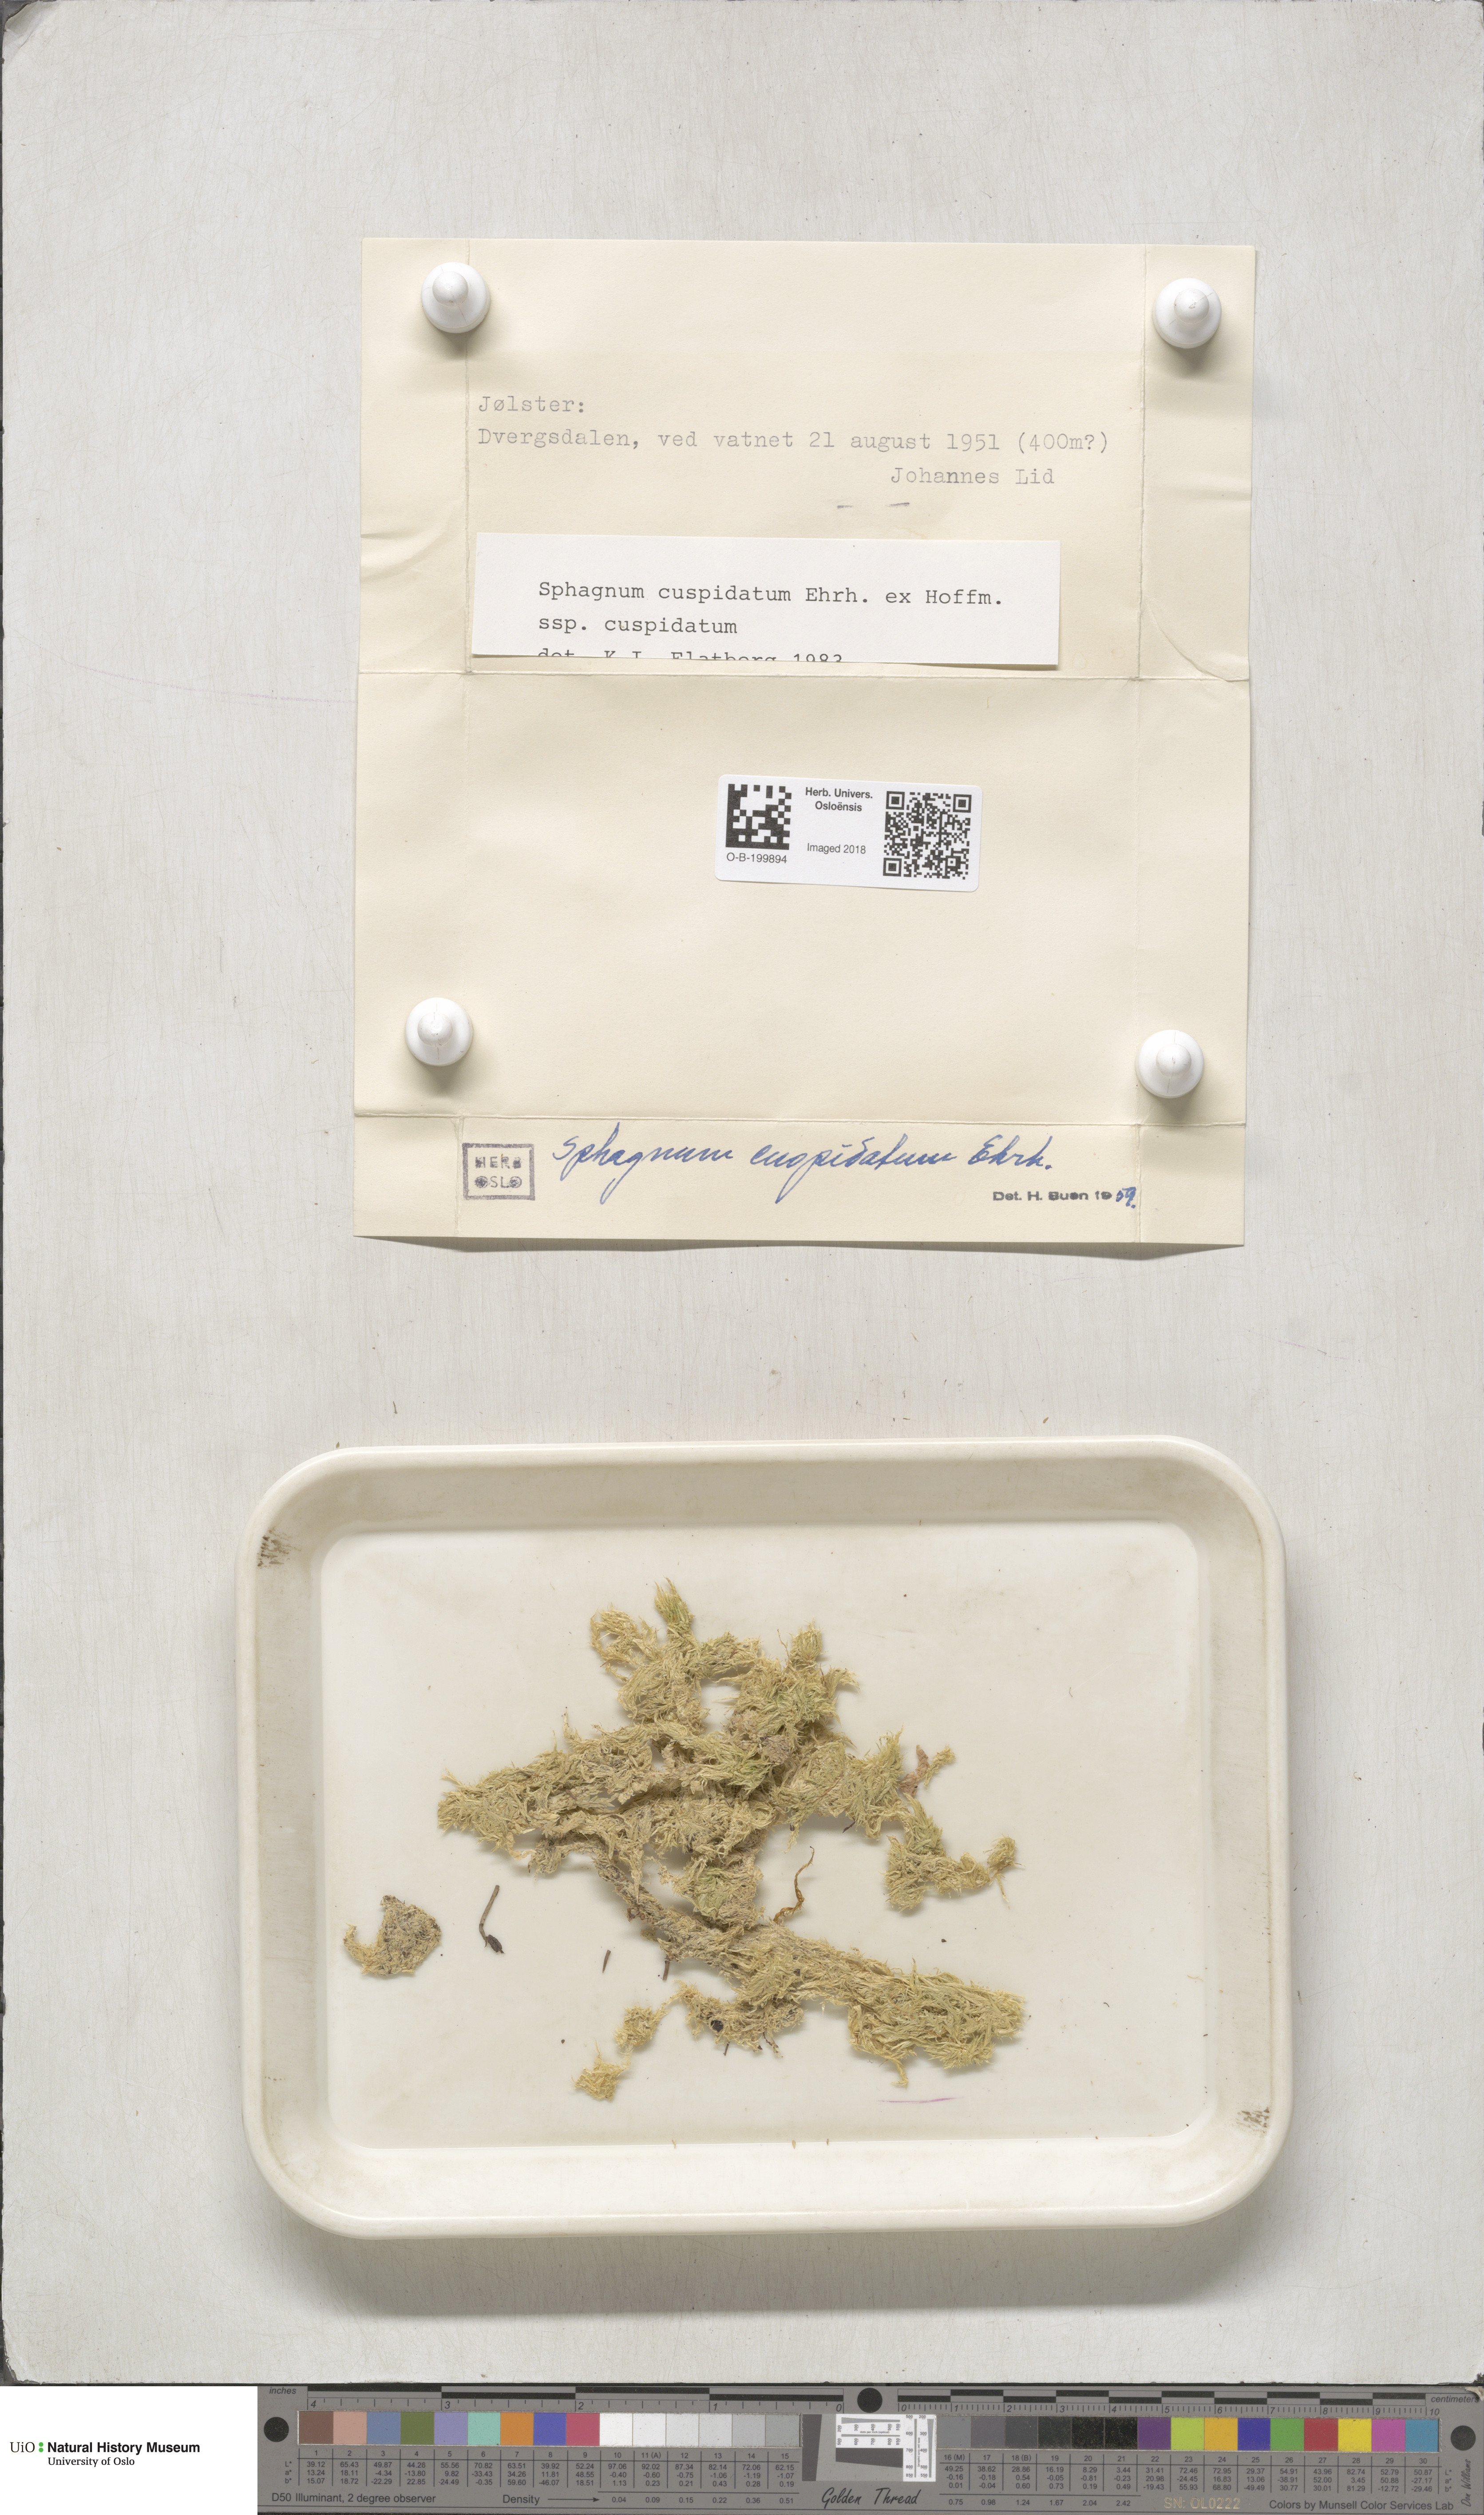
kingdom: Plantae
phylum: Bryophyta
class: Sphagnopsida
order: Sphagnales
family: Sphagnaceae
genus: Sphagnum
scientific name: Sphagnum cuspidatum
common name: Feathery peat moss
